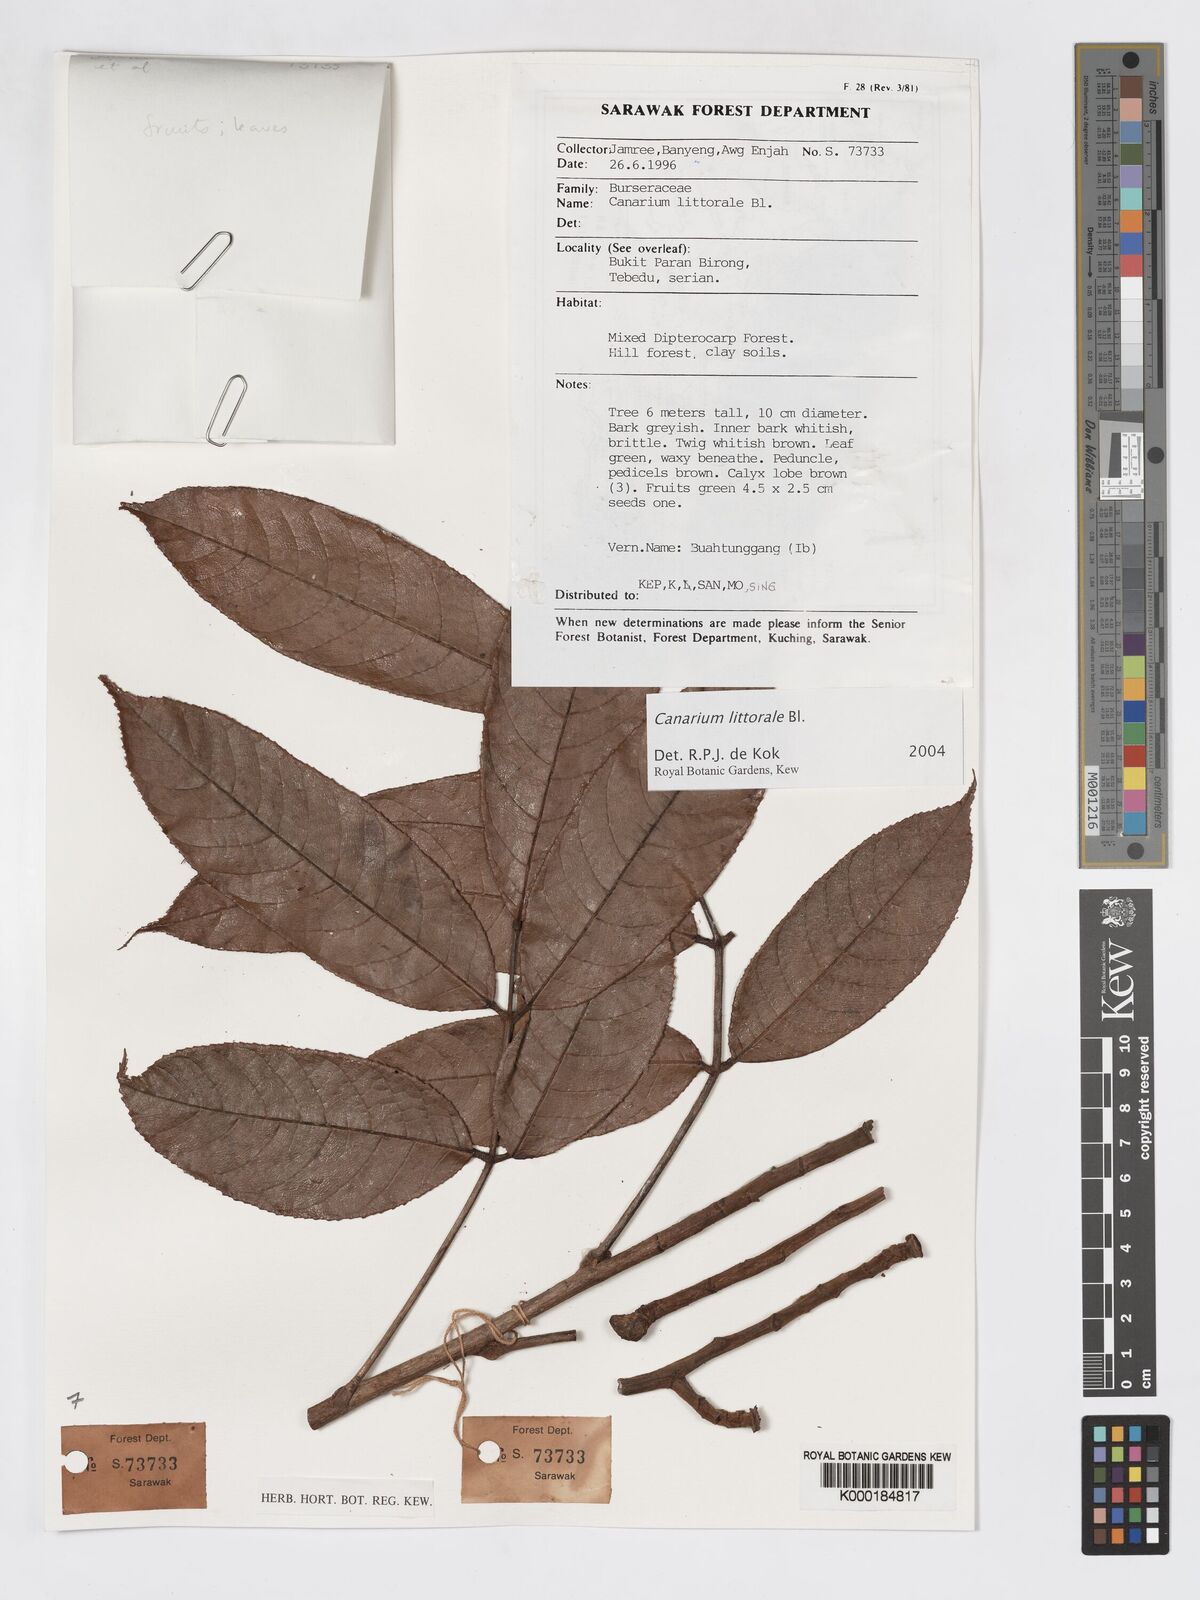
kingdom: Plantae
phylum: Tracheophyta
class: Magnoliopsida
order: Sapindales
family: Burseraceae
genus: Canarium
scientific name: Canarium littorale
